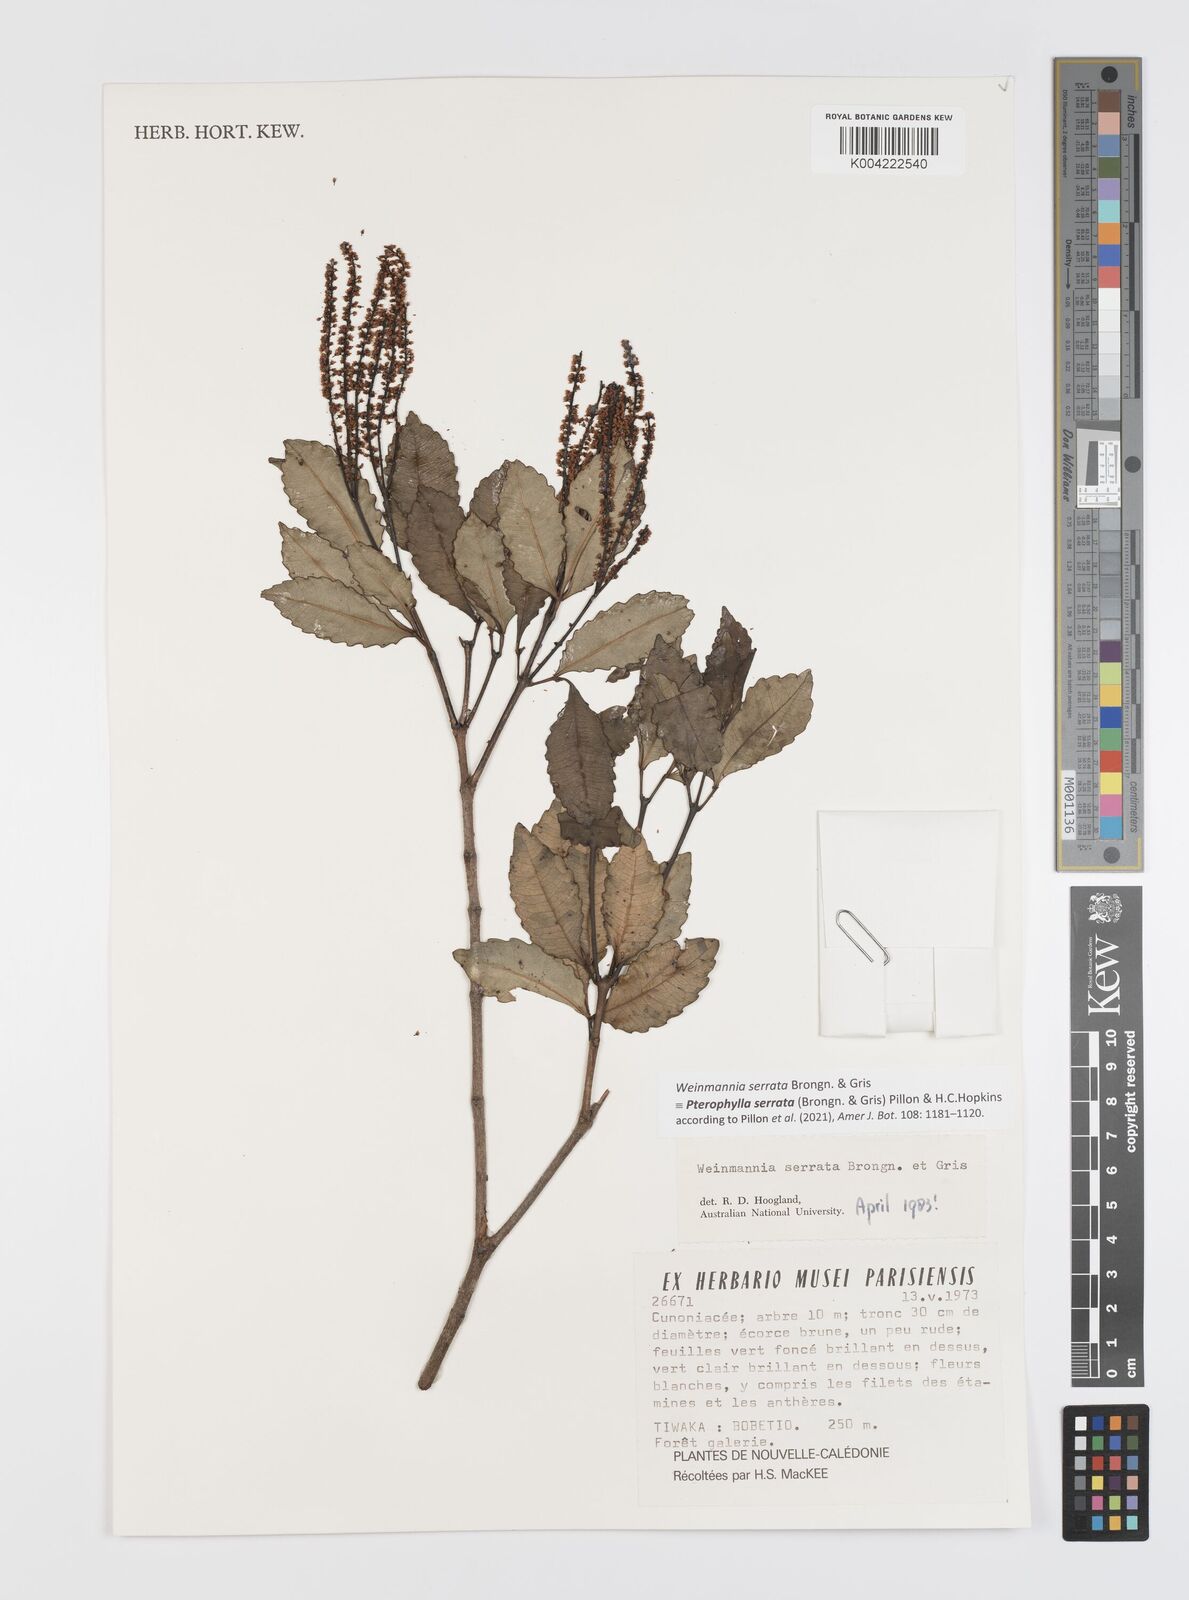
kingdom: Plantae
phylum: Tracheophyta
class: Magnoliopsida
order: Oxalidales
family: Cunoniaceae
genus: Pterophylla
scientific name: Pterophylla serrata
